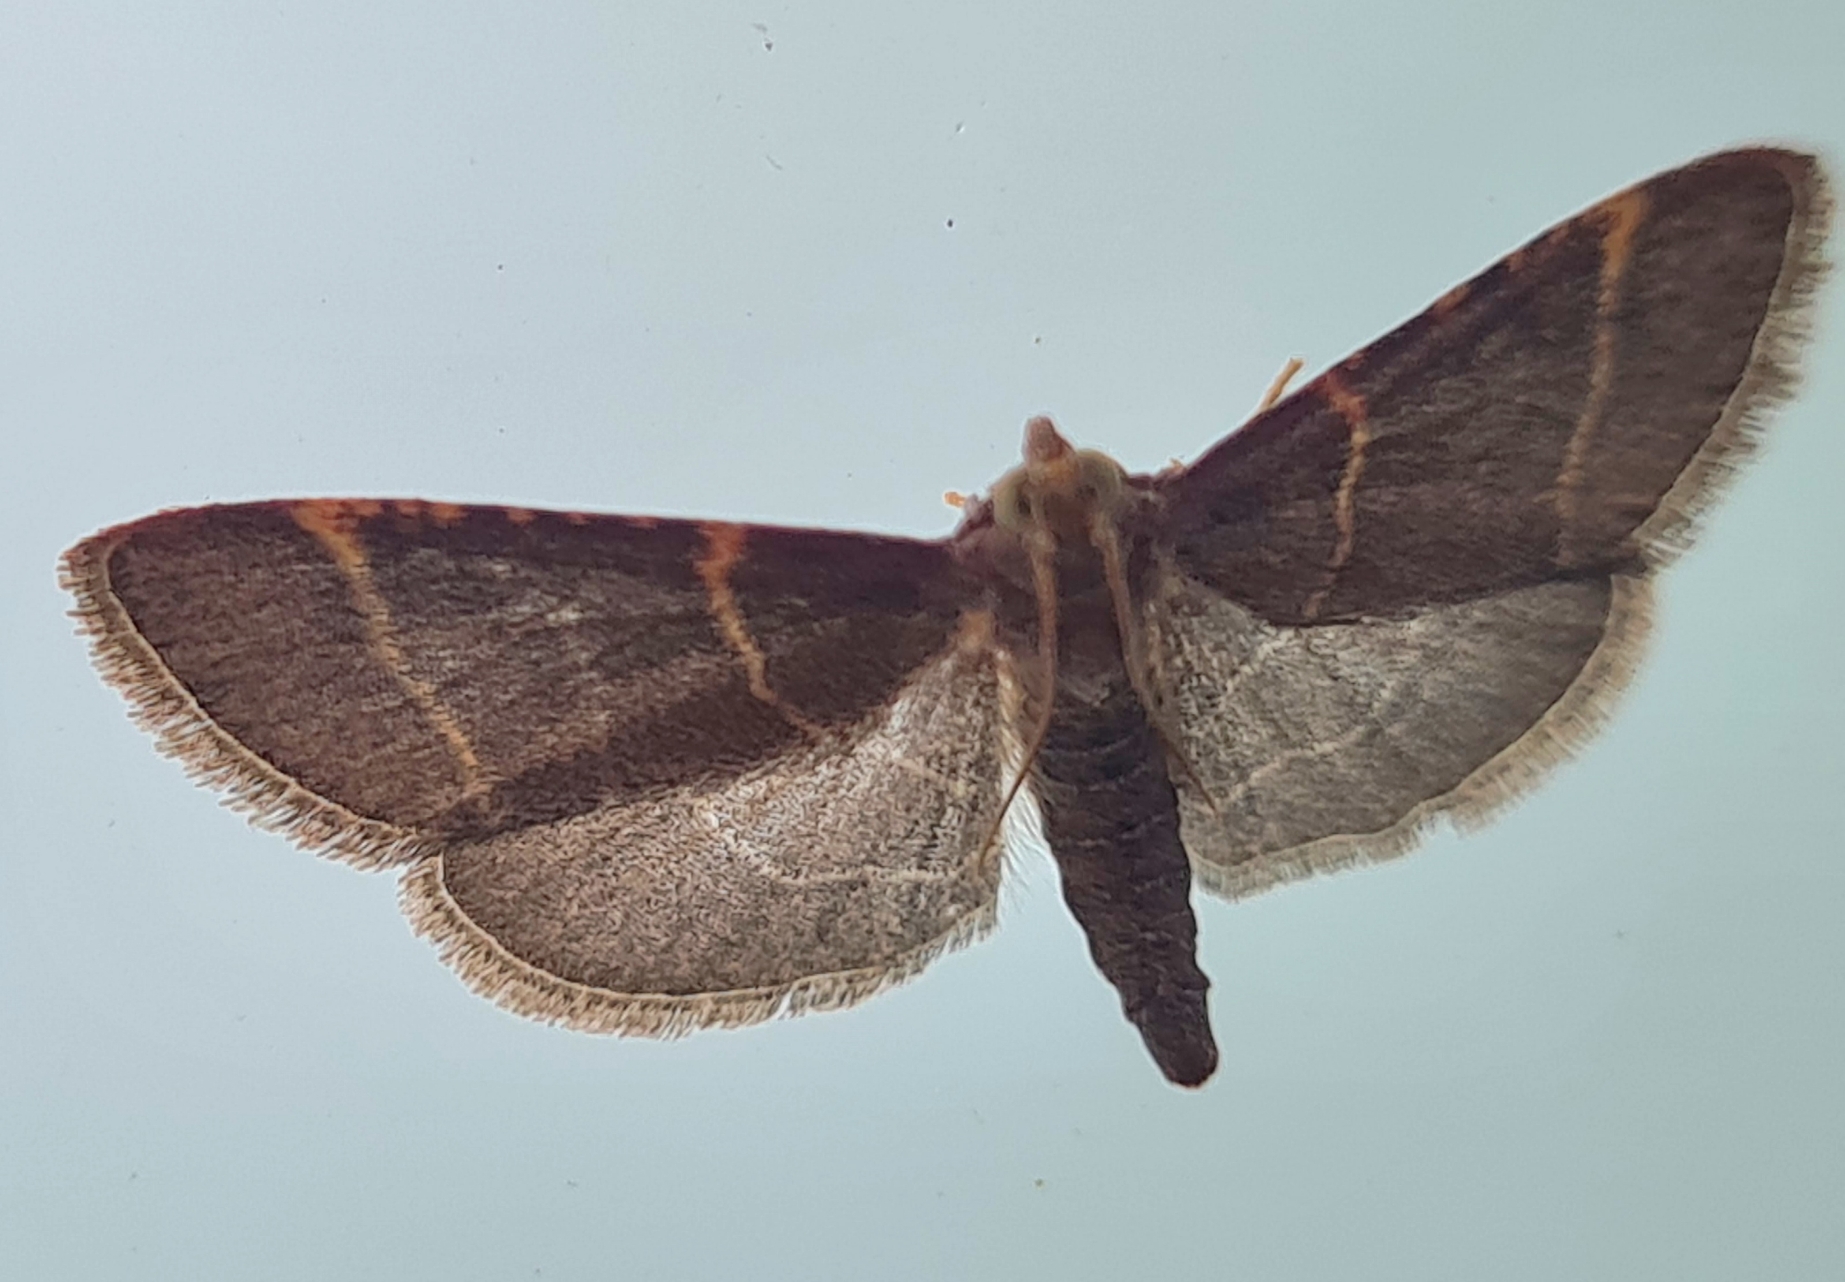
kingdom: Animalia
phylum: Arthropoda
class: Insecta
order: Lepidoptera
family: Pyralidae
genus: Hypsopygia
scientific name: Hypsopygia glaucinalis
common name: Blågråt herkuleshalvmøl
